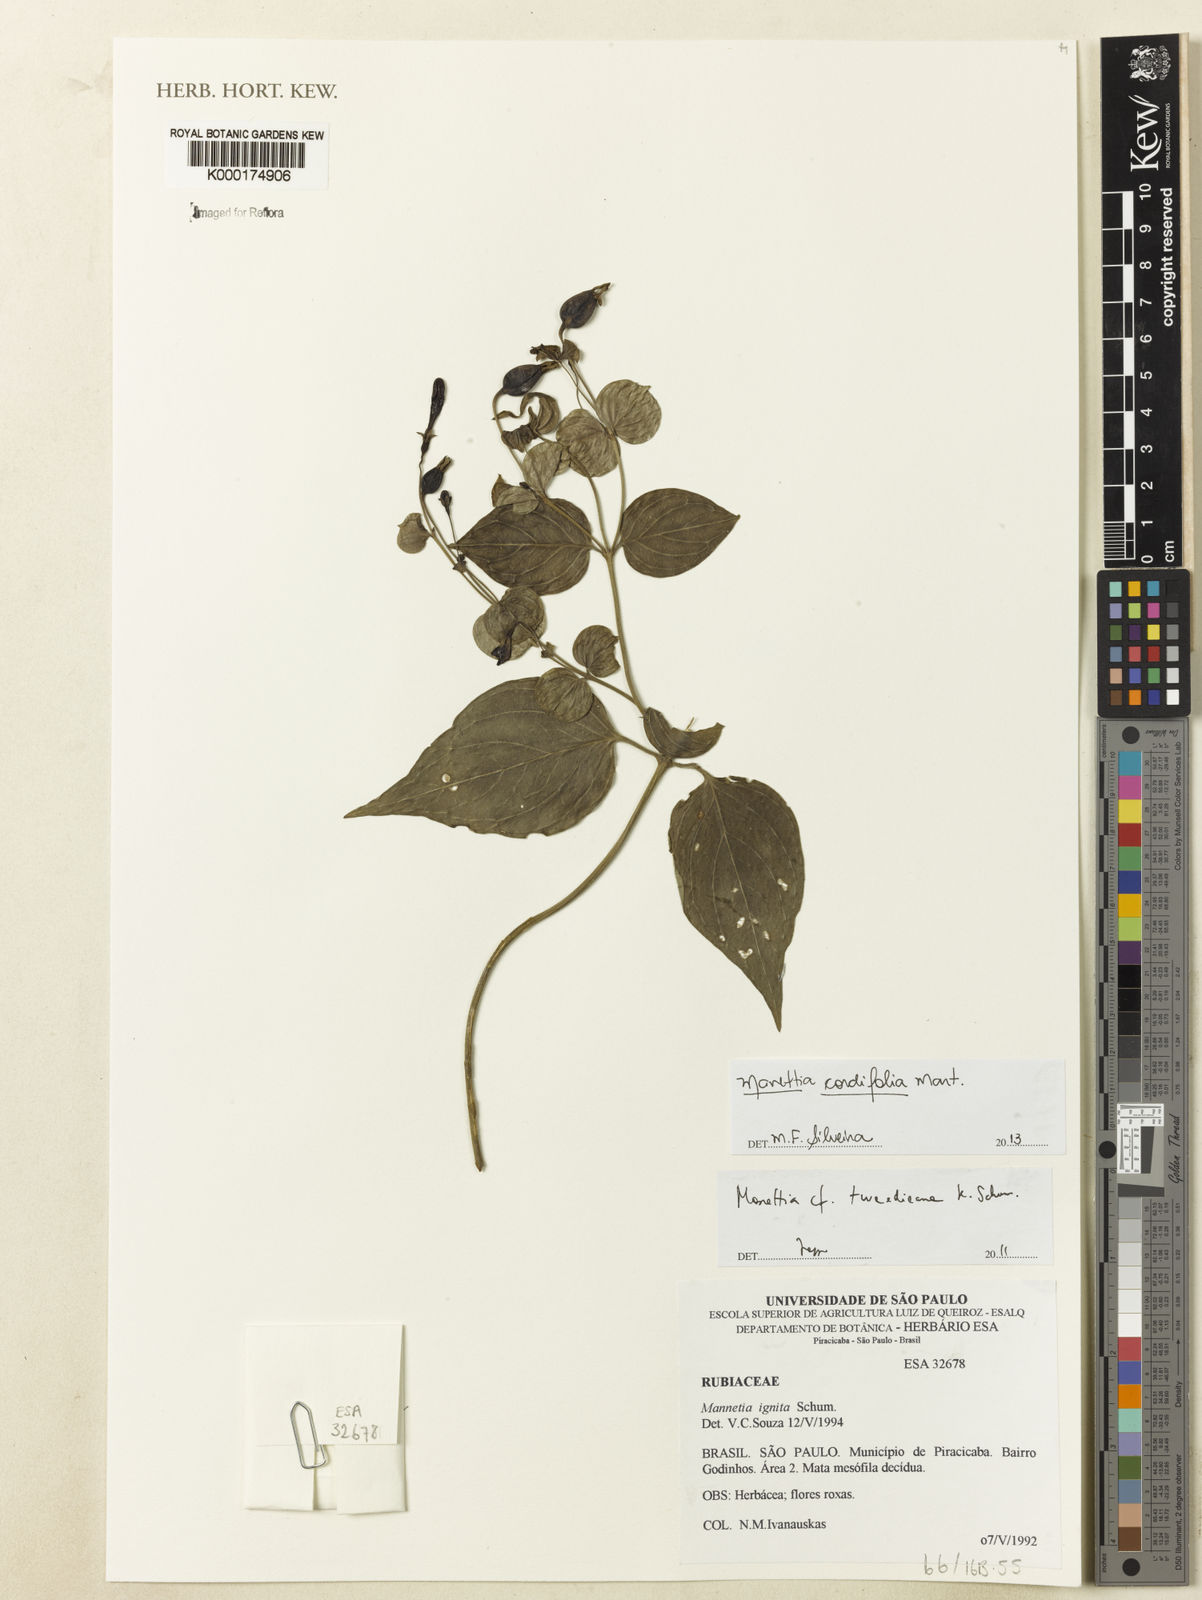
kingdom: Plantae
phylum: Tracheophyta
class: Magnoliopsida
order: Gentianales
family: Rubiaceae
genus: Manettia
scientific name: Manettia tweedieana
